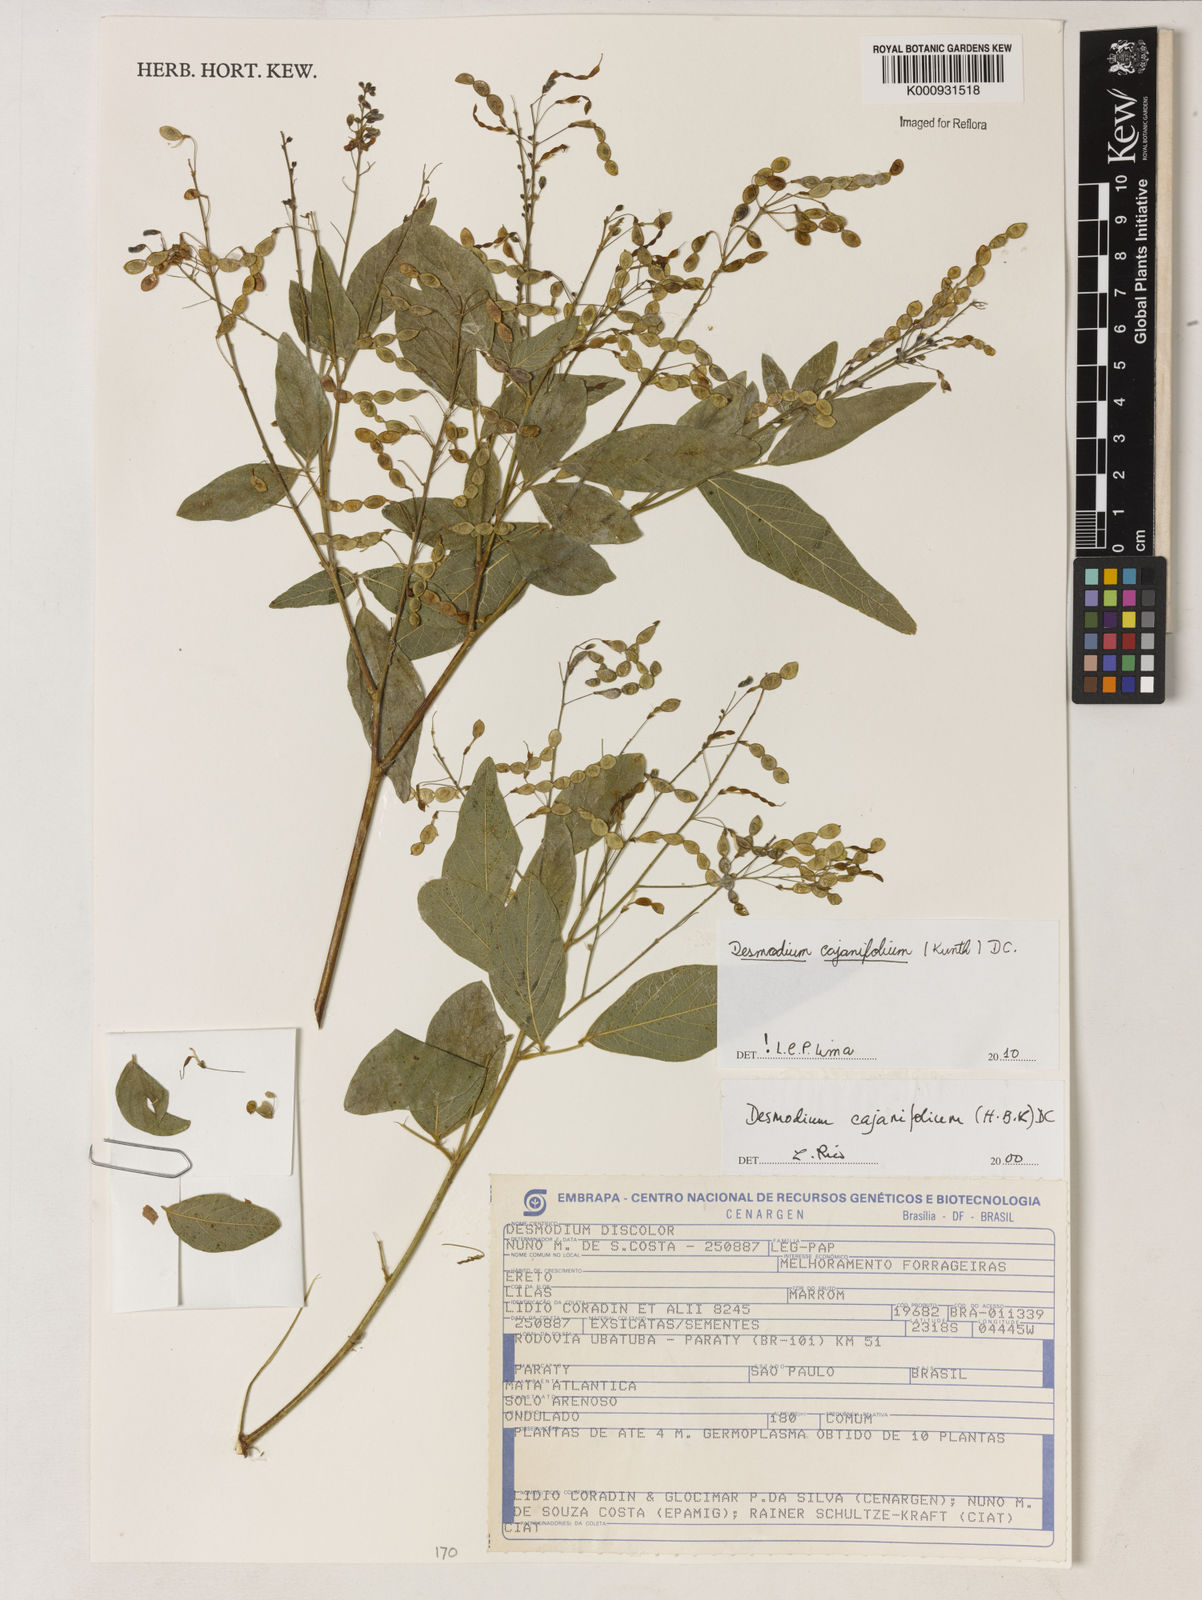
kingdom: Plantae
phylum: Tracheophyta
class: Magnoliopsida
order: Fabales
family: Fabaceae
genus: Desmodium
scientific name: Desmodium cajanifolium
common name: Tropical ticktrefoil
